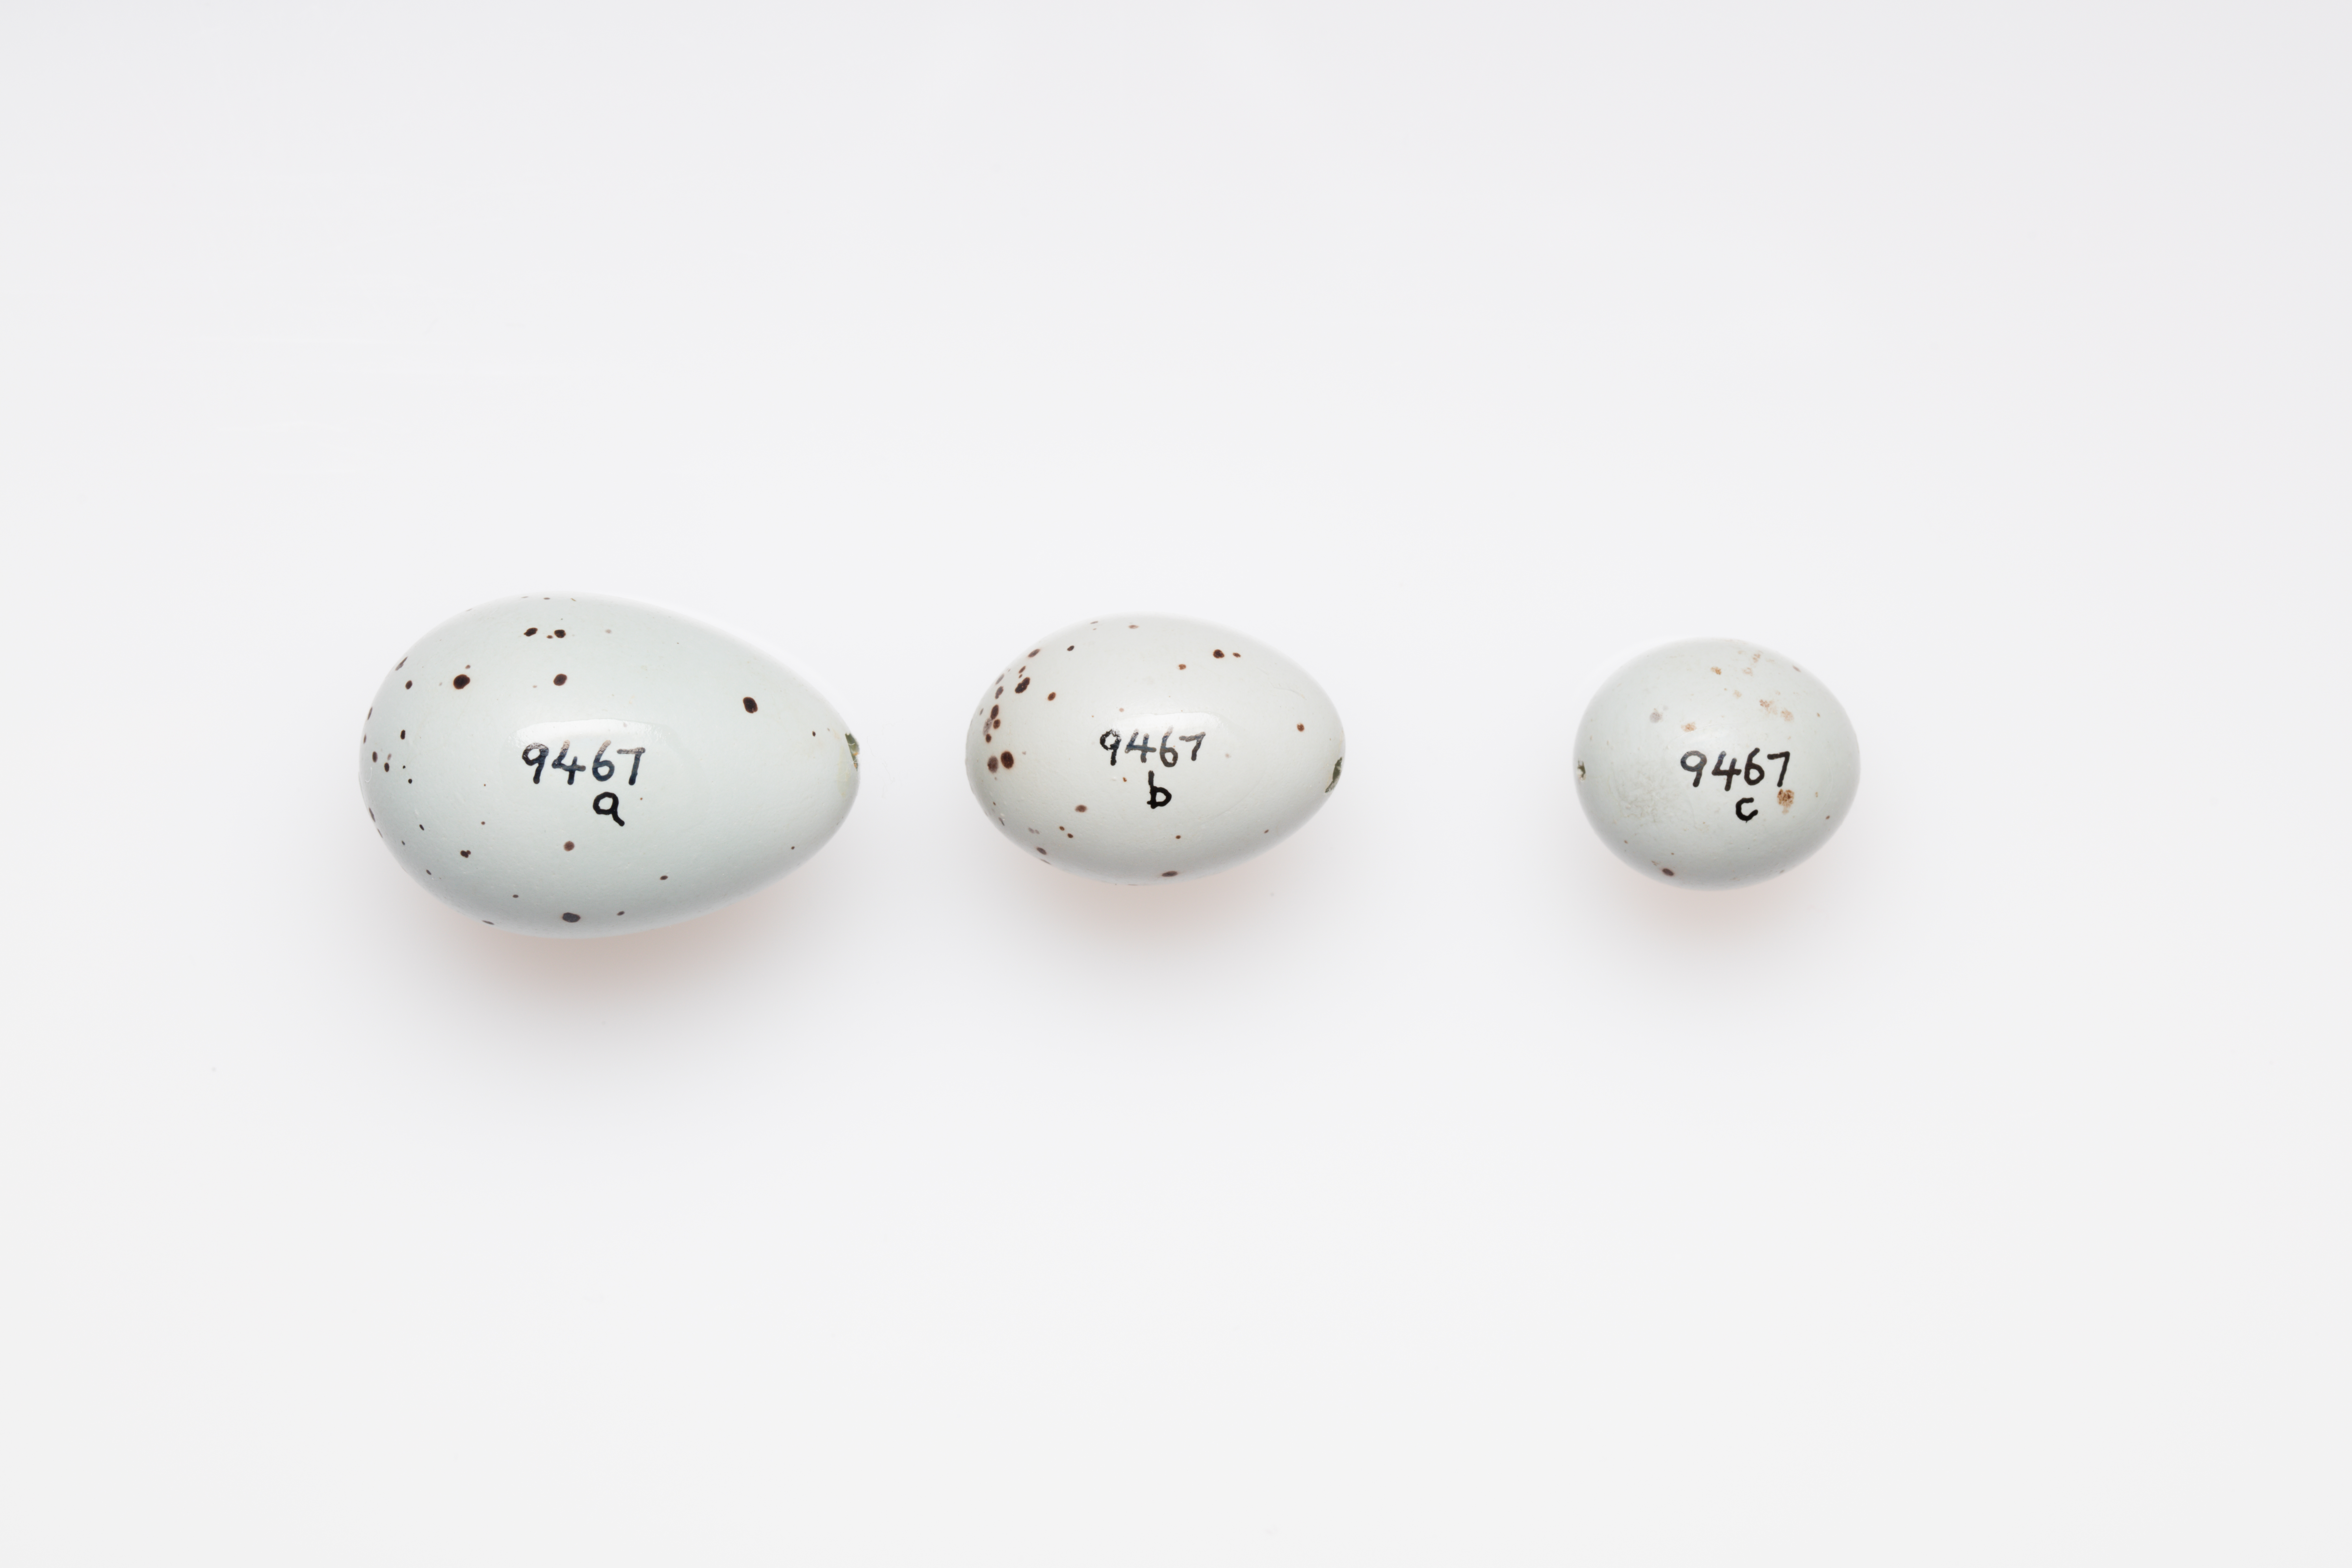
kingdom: Animalia
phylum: Chordata
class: Aves
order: Passeriformes
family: Turdidae
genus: Turdus
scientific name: Turdus philomelos
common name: Song thrush
